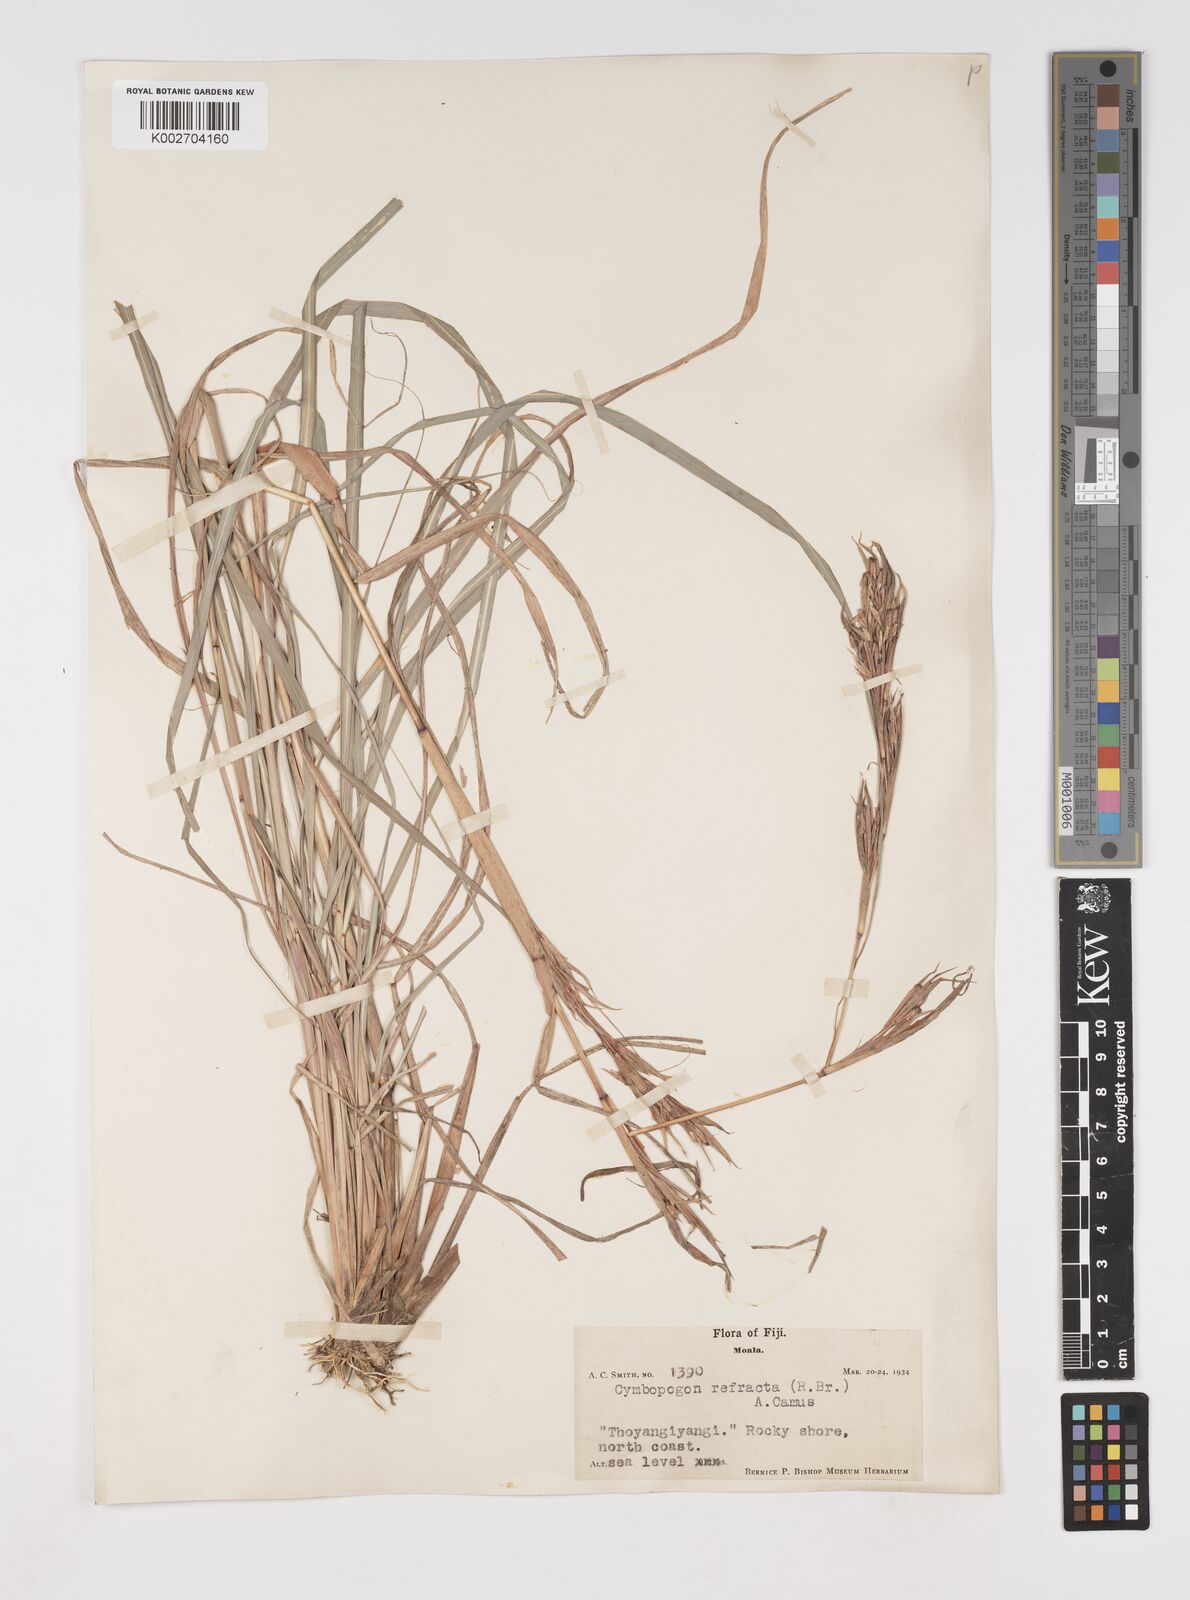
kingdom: Plantae
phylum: Tracheophyta
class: Liliopsida
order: Poales
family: Poaceae
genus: Cymbopogon
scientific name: Cymbopogon refractus
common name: Barbwire grass
